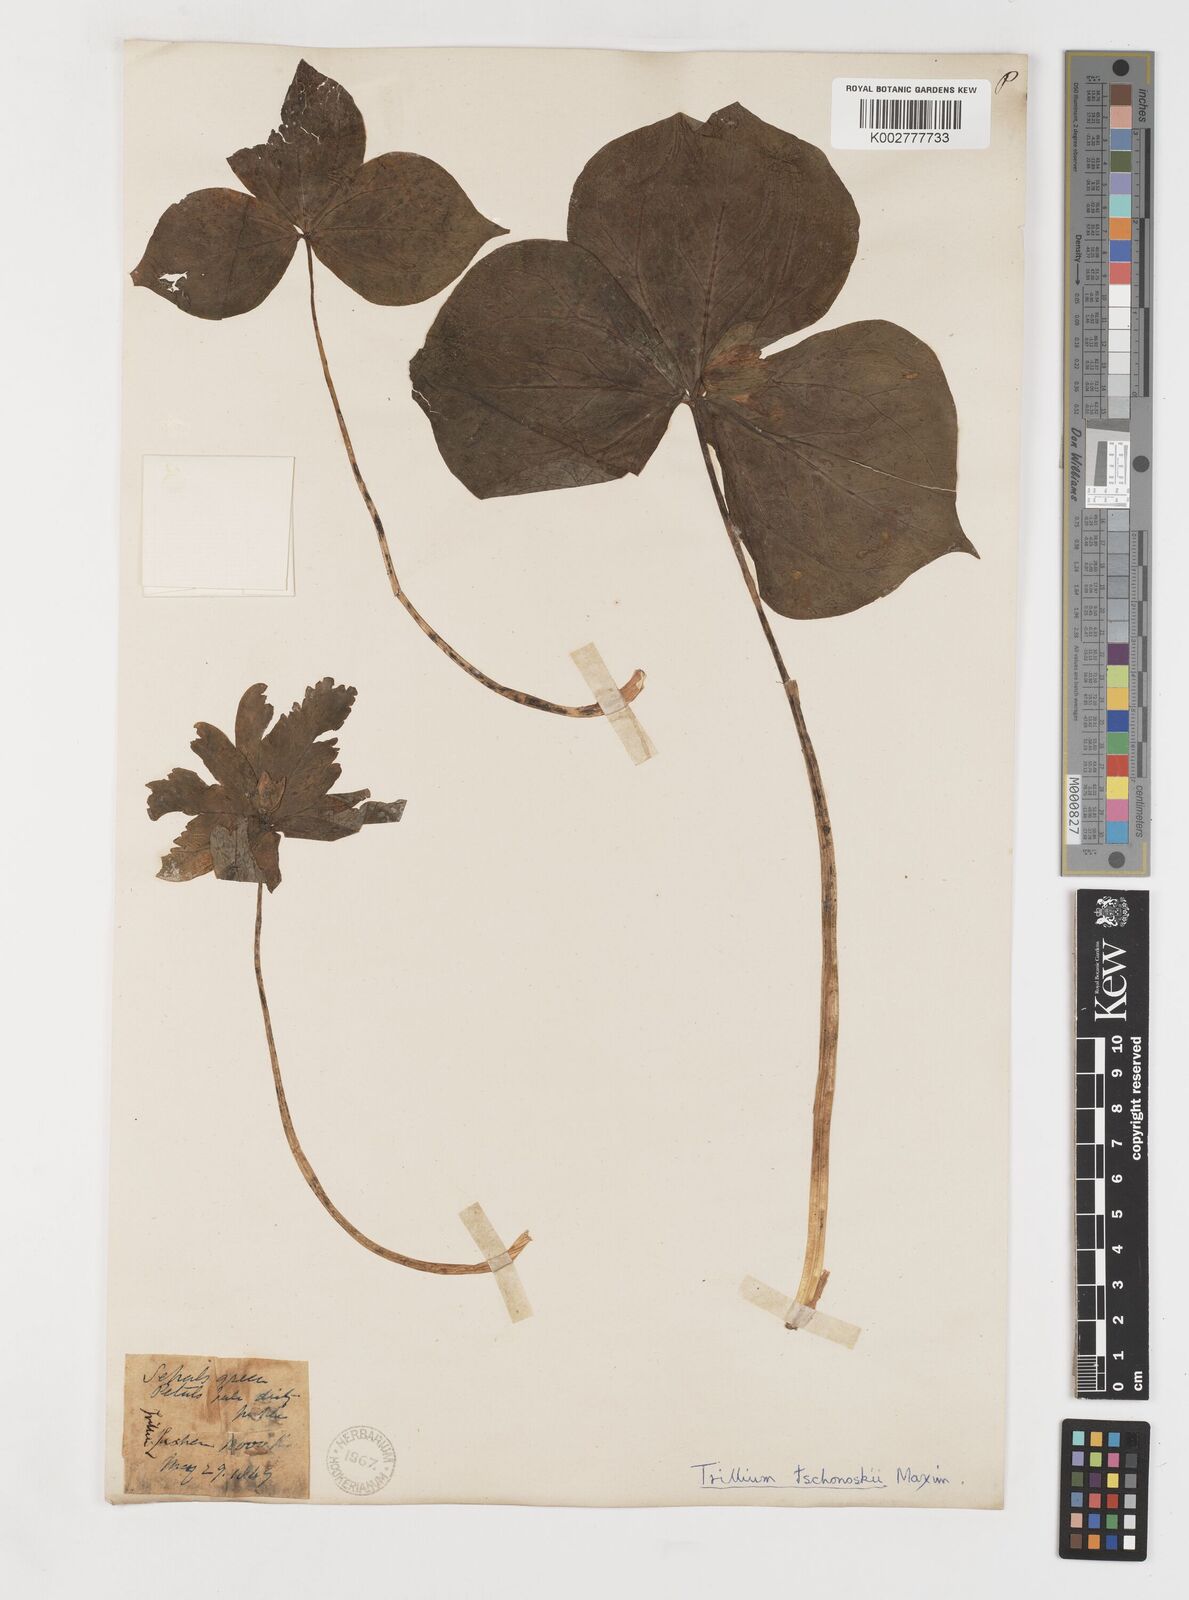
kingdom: Plantae
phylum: Tracheophyta
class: Liliopsida
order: Liliales
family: Melanthiaceae
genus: Trillium
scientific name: Trillium tschonoskii
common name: A pearl on head
